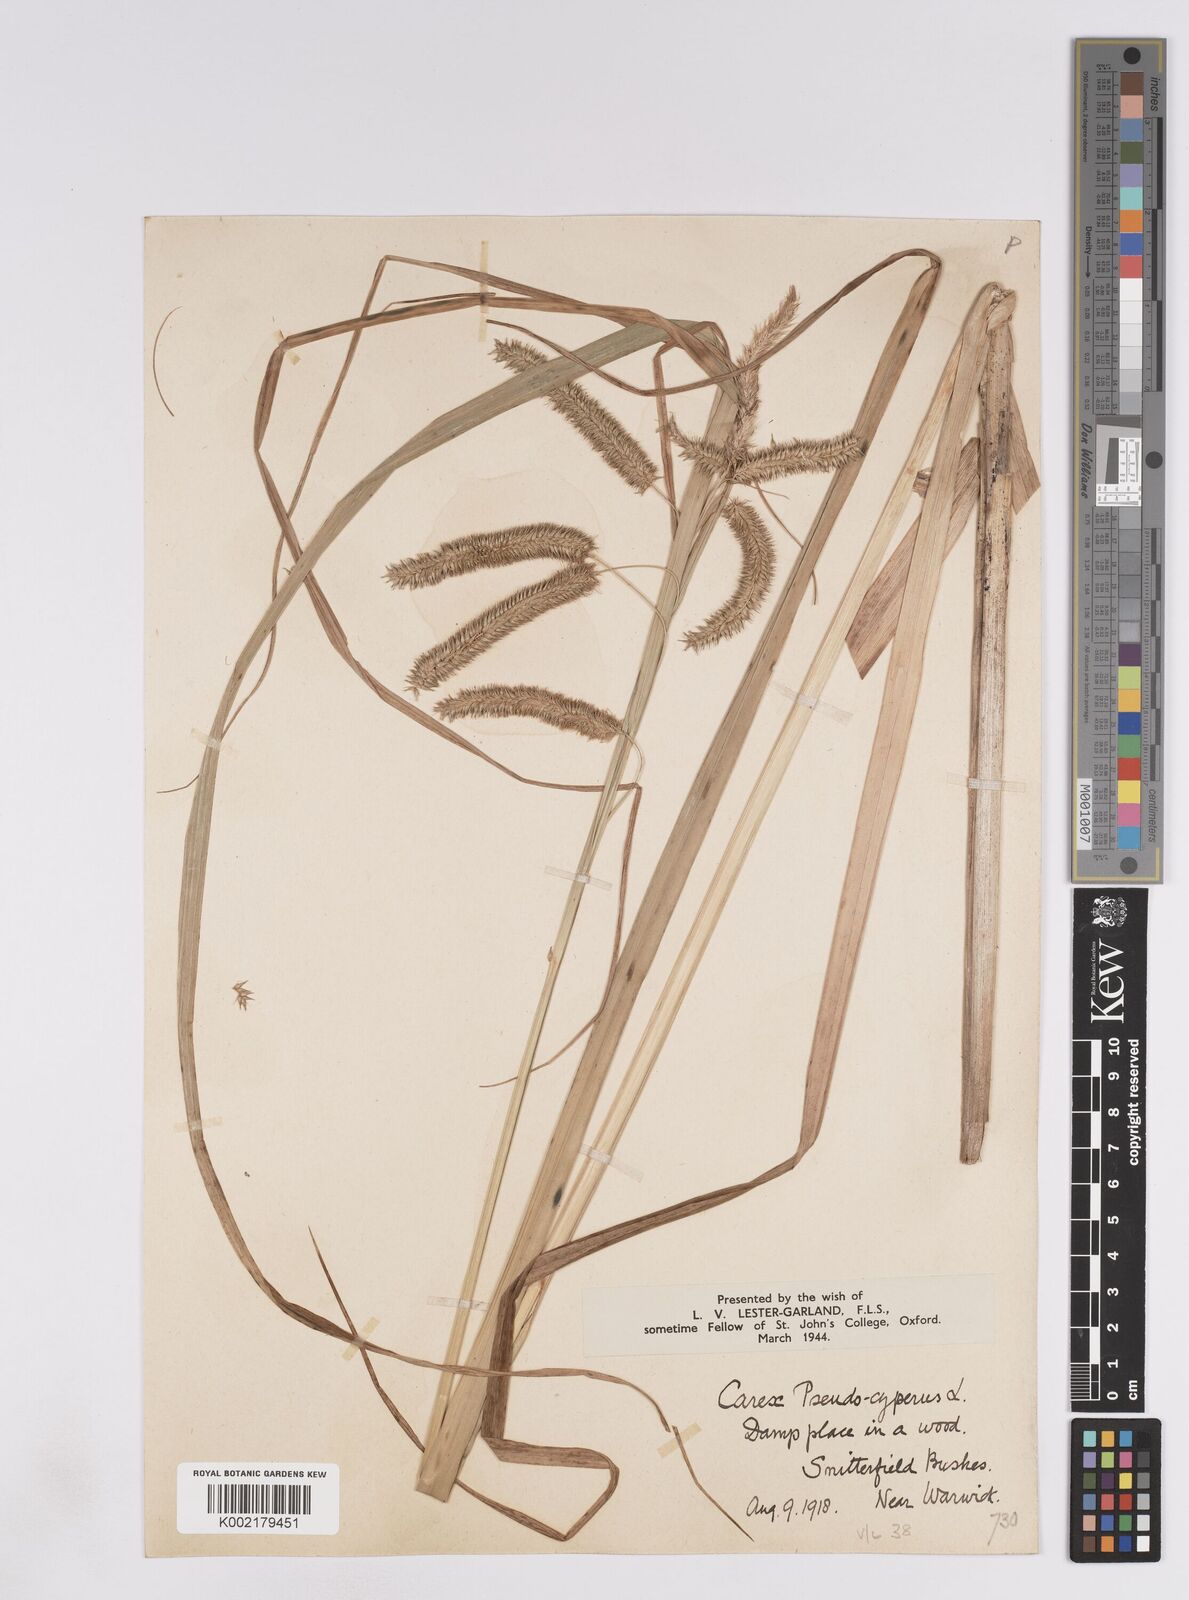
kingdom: Plantae
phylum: Tracheophyta
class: Liliopsida
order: Poales
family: Cyperaceae
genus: Carex
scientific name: Carex pseudocyperus
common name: Cyperus sedge
